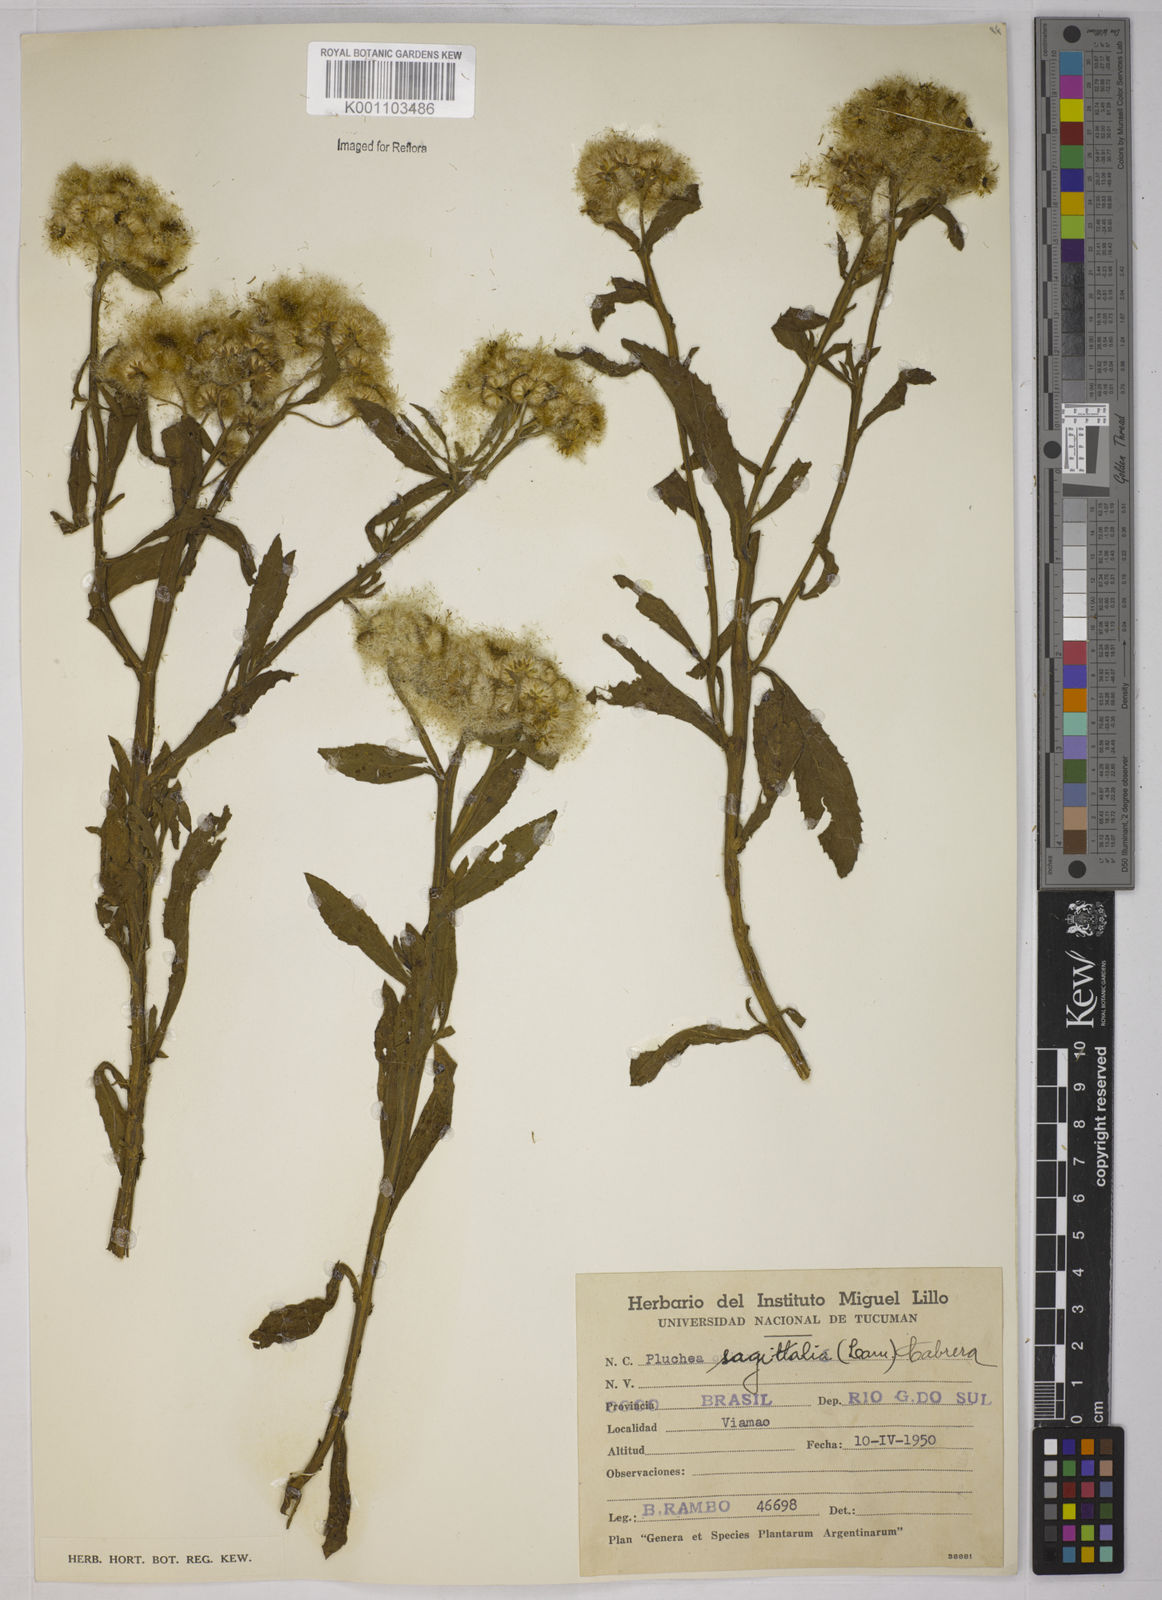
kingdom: Plantae
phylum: Tracheophyta
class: Magnoliopsida
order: Asterales
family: Asteraceae
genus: Pluchea
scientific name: Pluchea sagittalis
